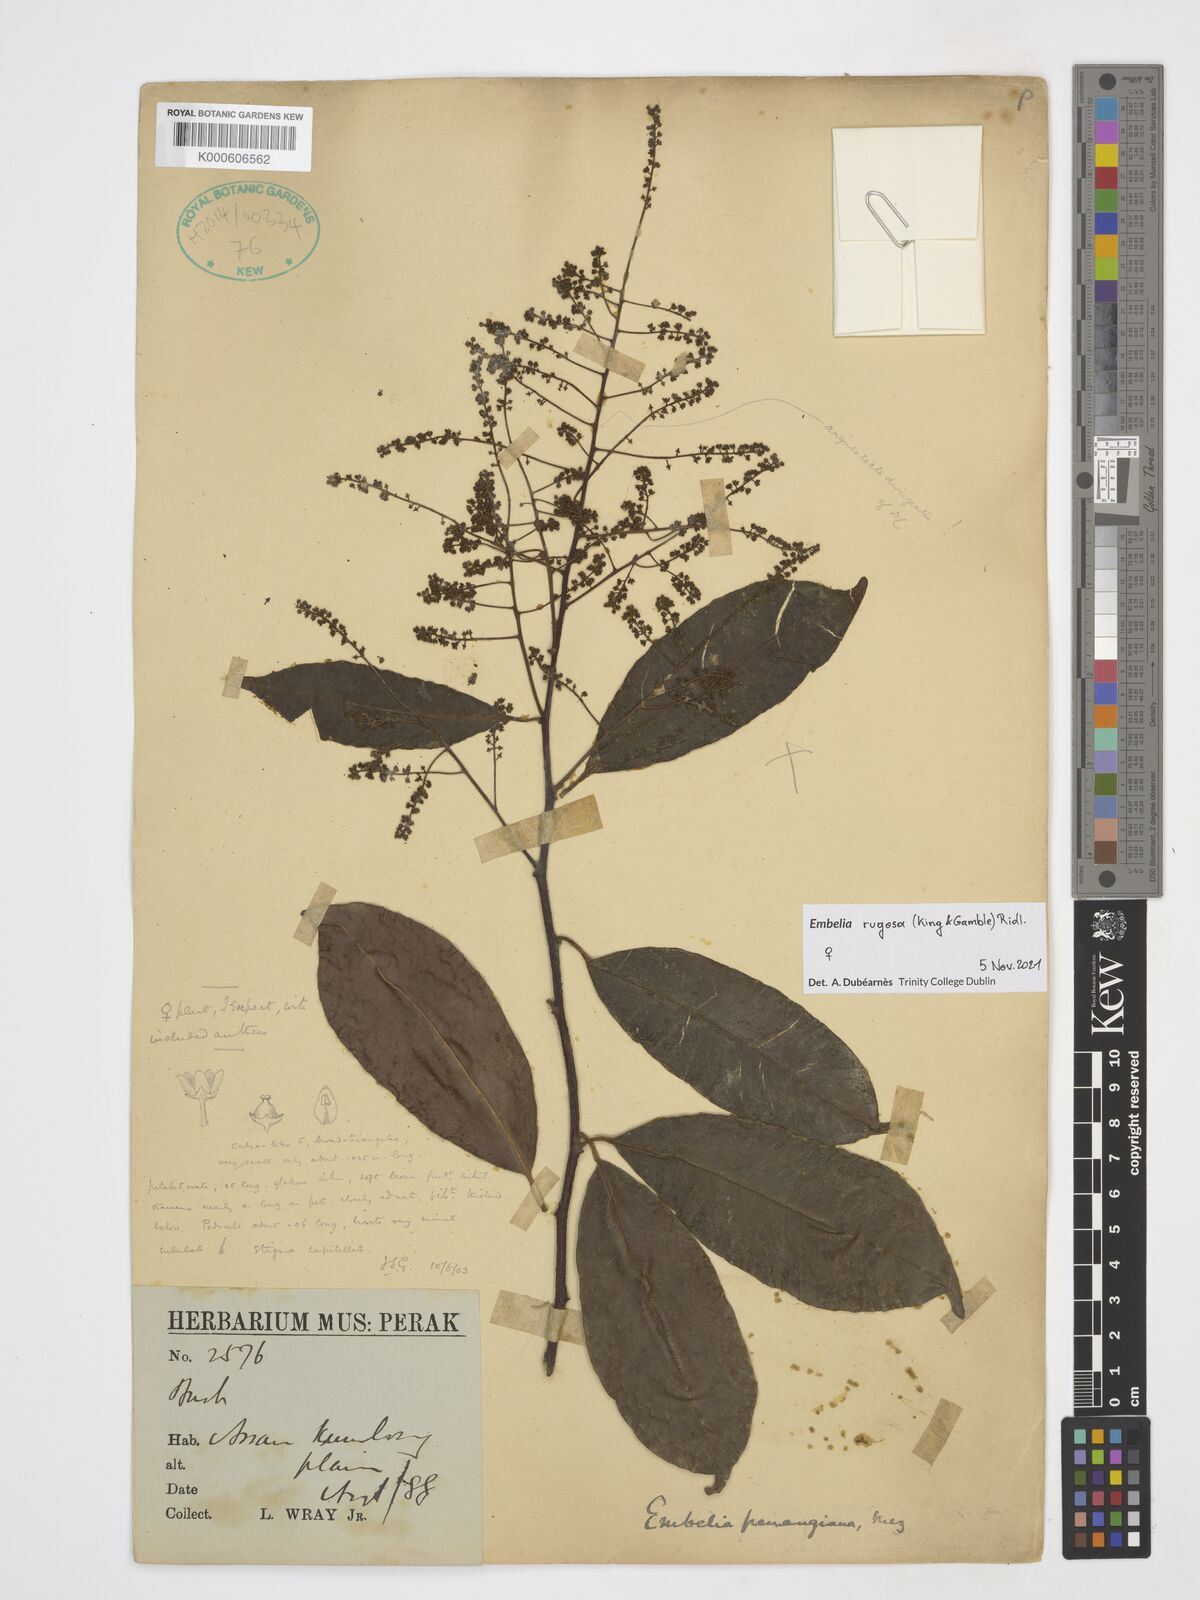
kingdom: Plantae
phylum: Tracheophyta
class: Magnoliopsida
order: Ericales
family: Primulaceae
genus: Embelia
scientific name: Embelia rugosa
